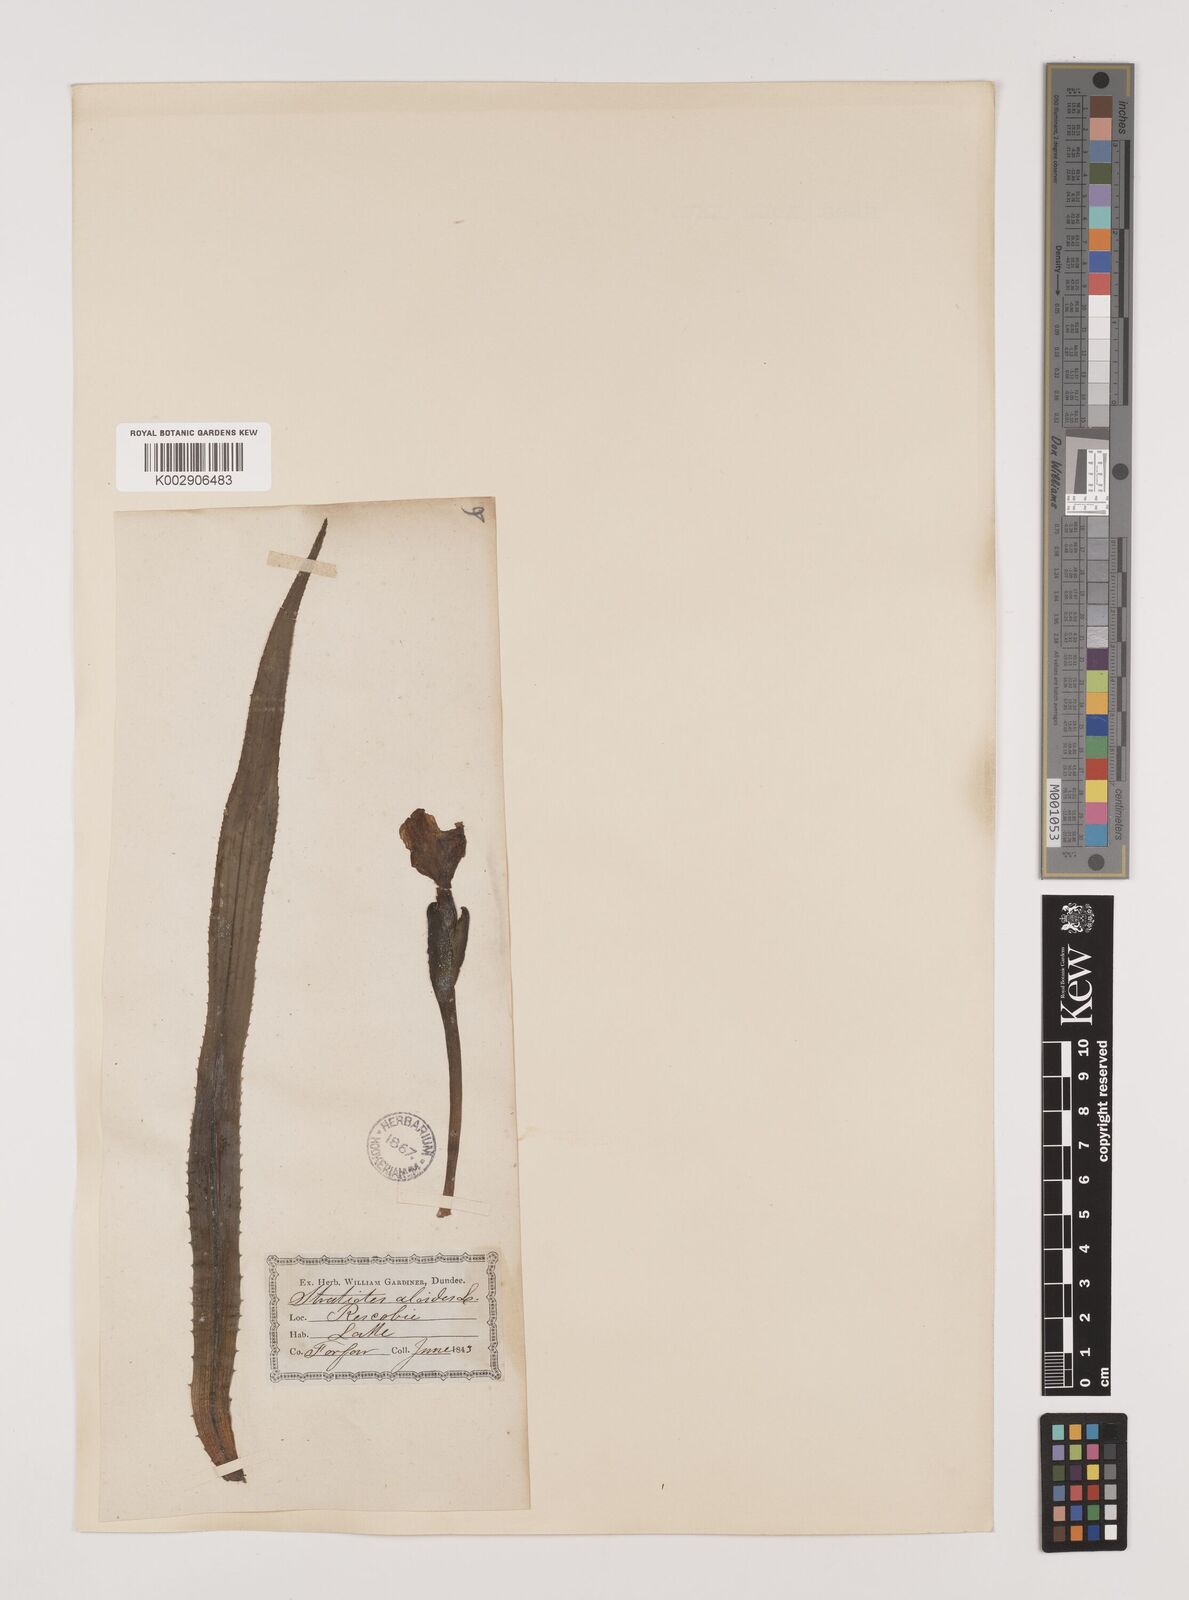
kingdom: Plantae
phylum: Tracheophyta
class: Liliopsida
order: Alismatales
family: Hydrocharitaceae
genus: Stratiotes
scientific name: Stratiotes aloides
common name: Water-soldier
